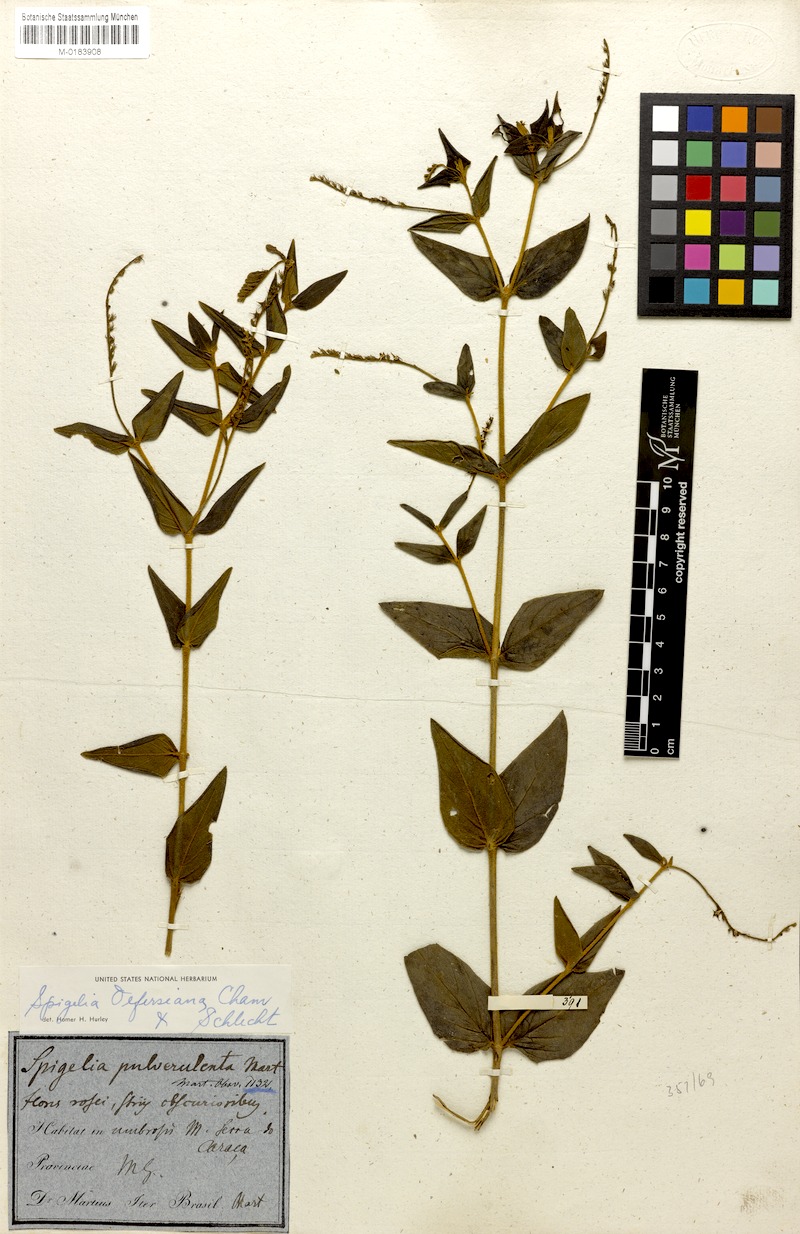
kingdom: Plantae
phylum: Tracheophyta
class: Magnoliopsida
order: Gentianales
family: Loganiaceae
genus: Spigelia
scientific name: Spigelia olfersiana
